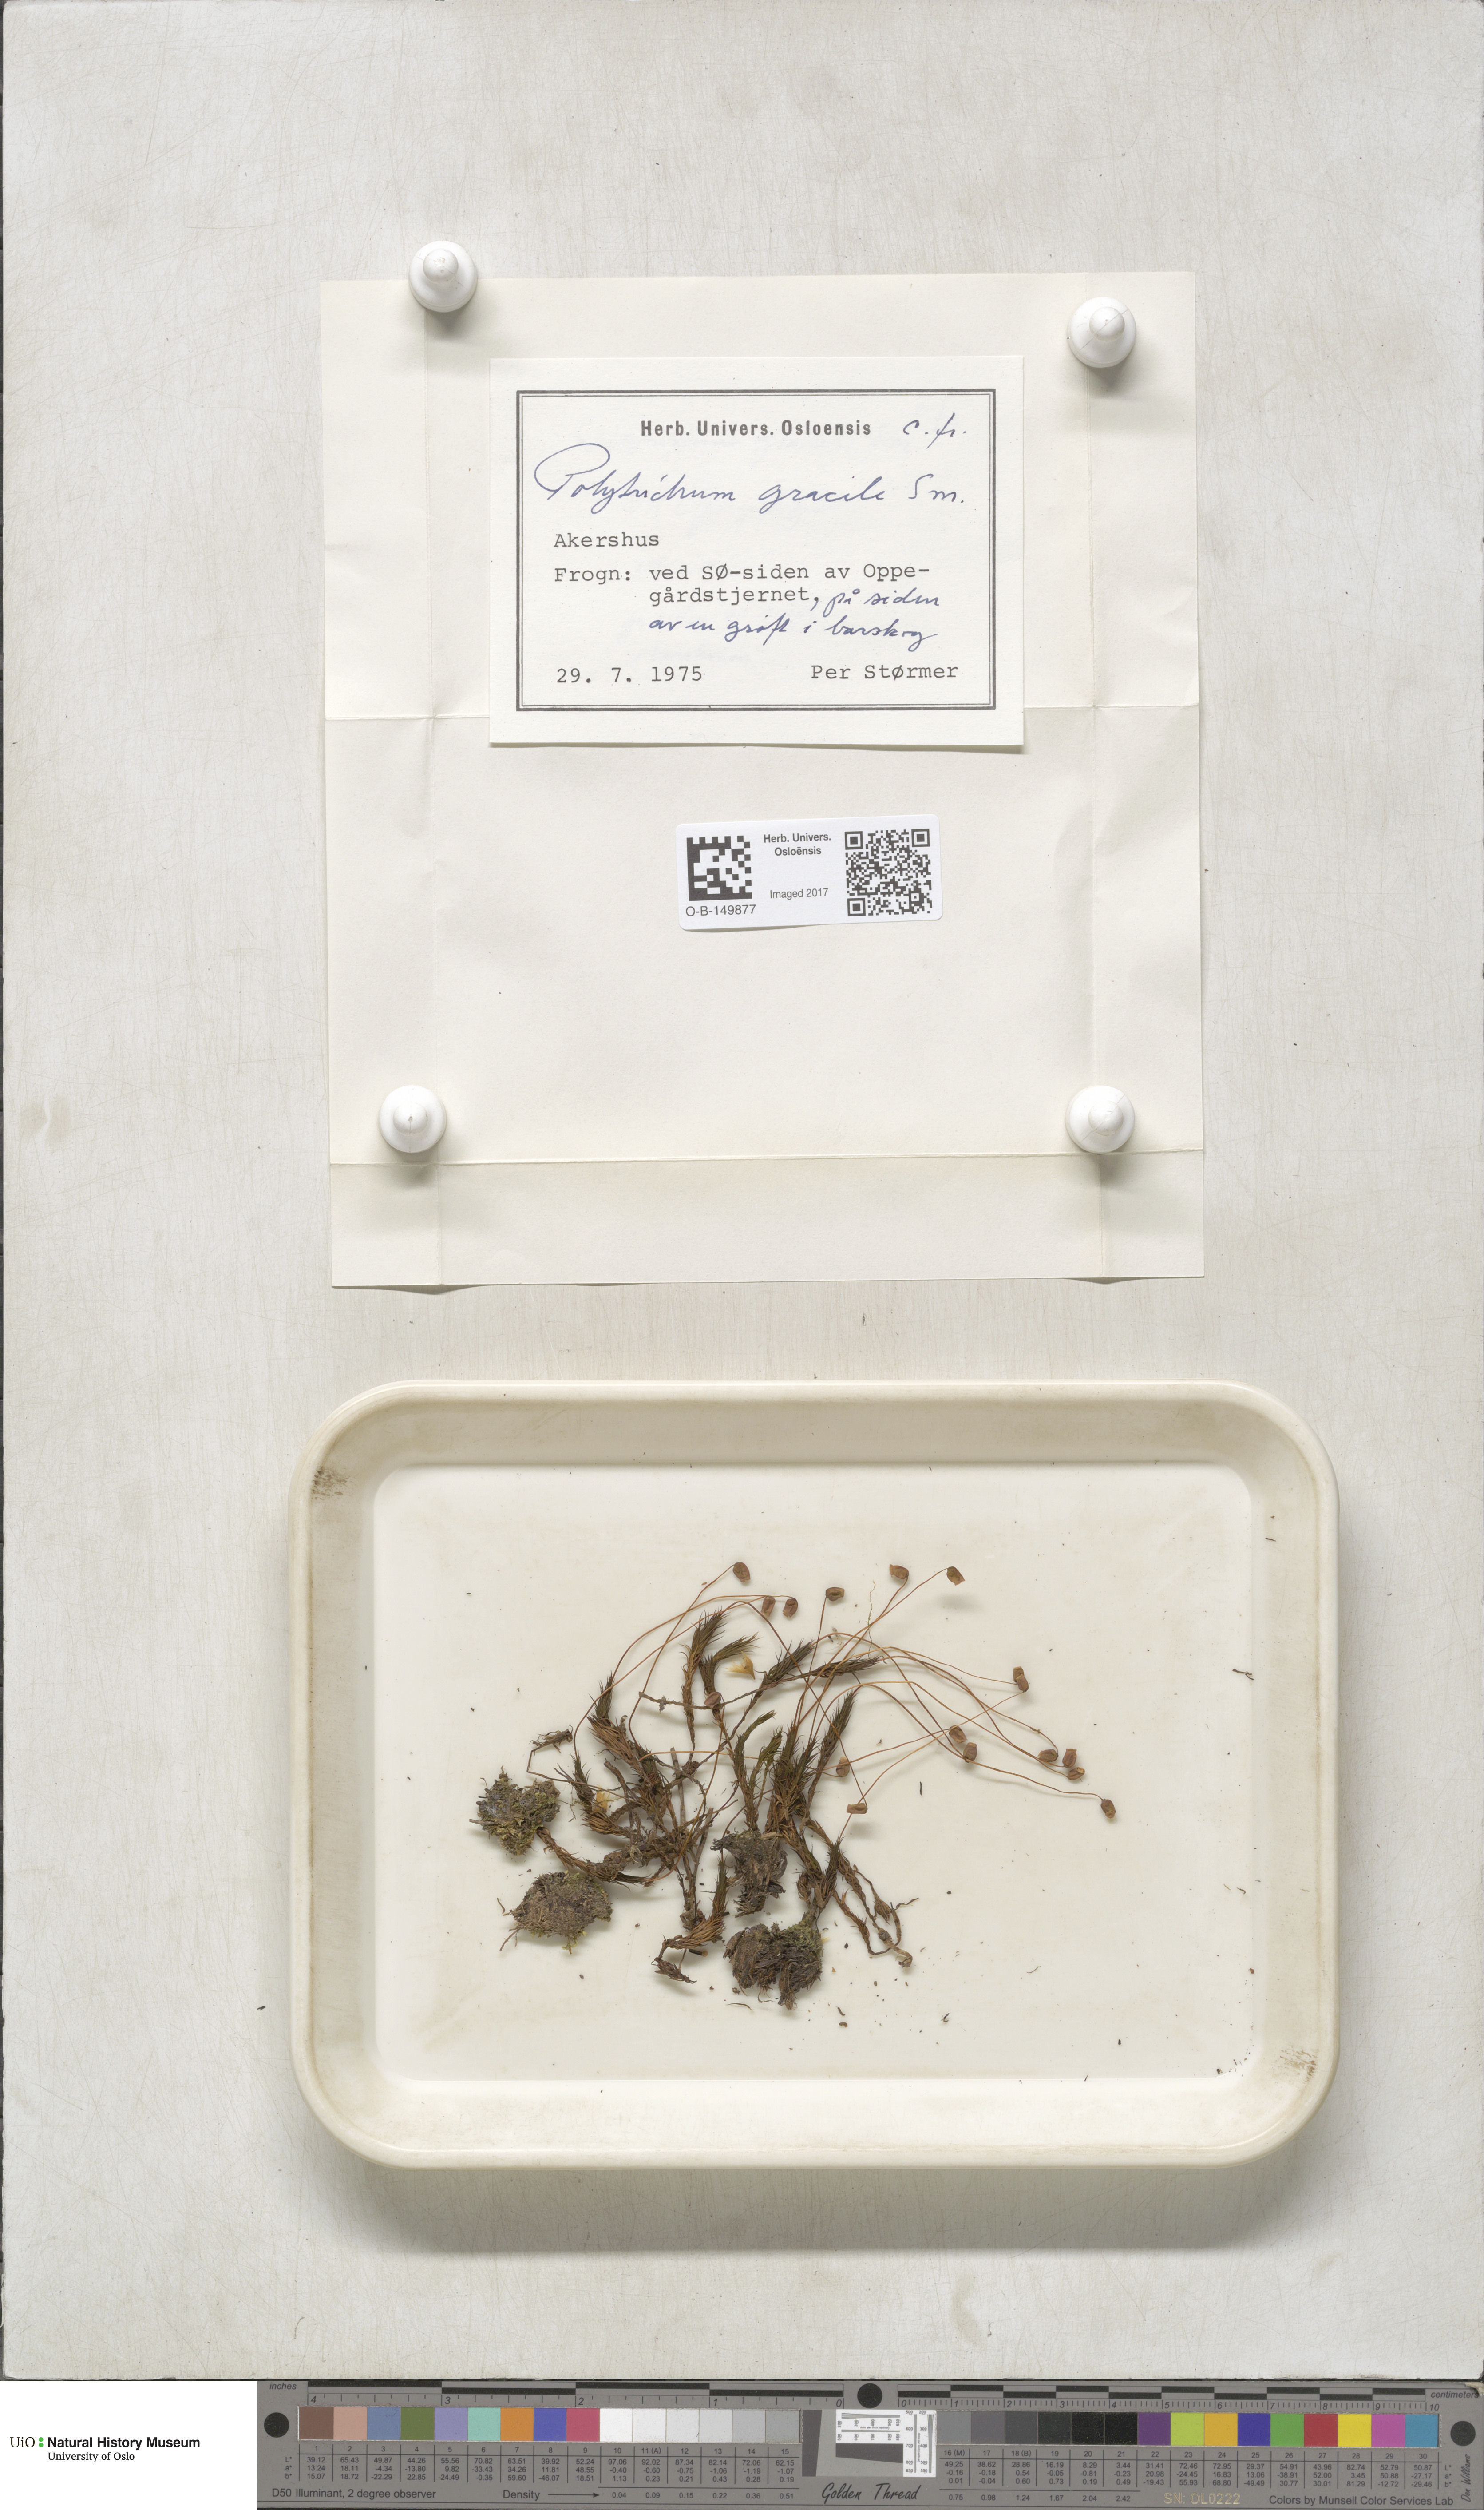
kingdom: Plantae
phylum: Bryophyta
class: Polytrichopsida
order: Polytrichales
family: Polytrichaceae
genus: Polytrichum
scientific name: Polytrichum longisetum
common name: Long-stalked haircap moss
